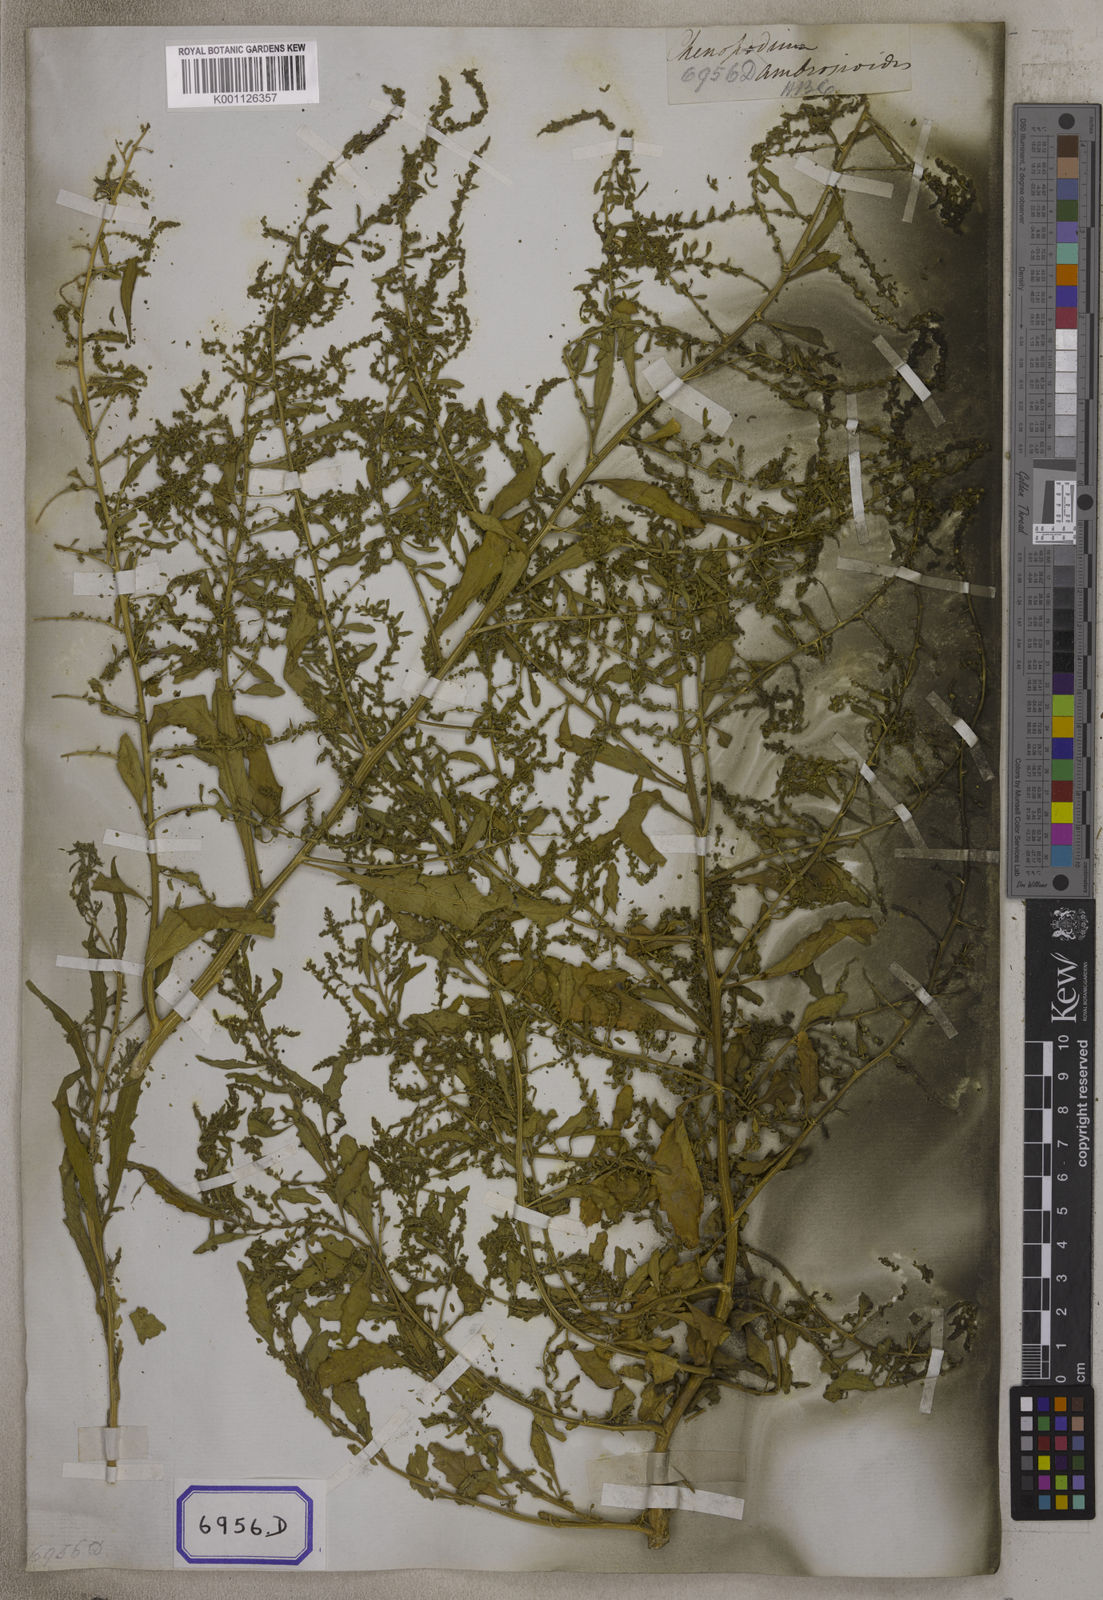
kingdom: Plantae
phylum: Tracheophyta
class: Magnoliopsida
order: Caryophyllales
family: Amaranthaceae
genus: Dysphania
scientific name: Dysphania ambrosioides
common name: Wormseed
